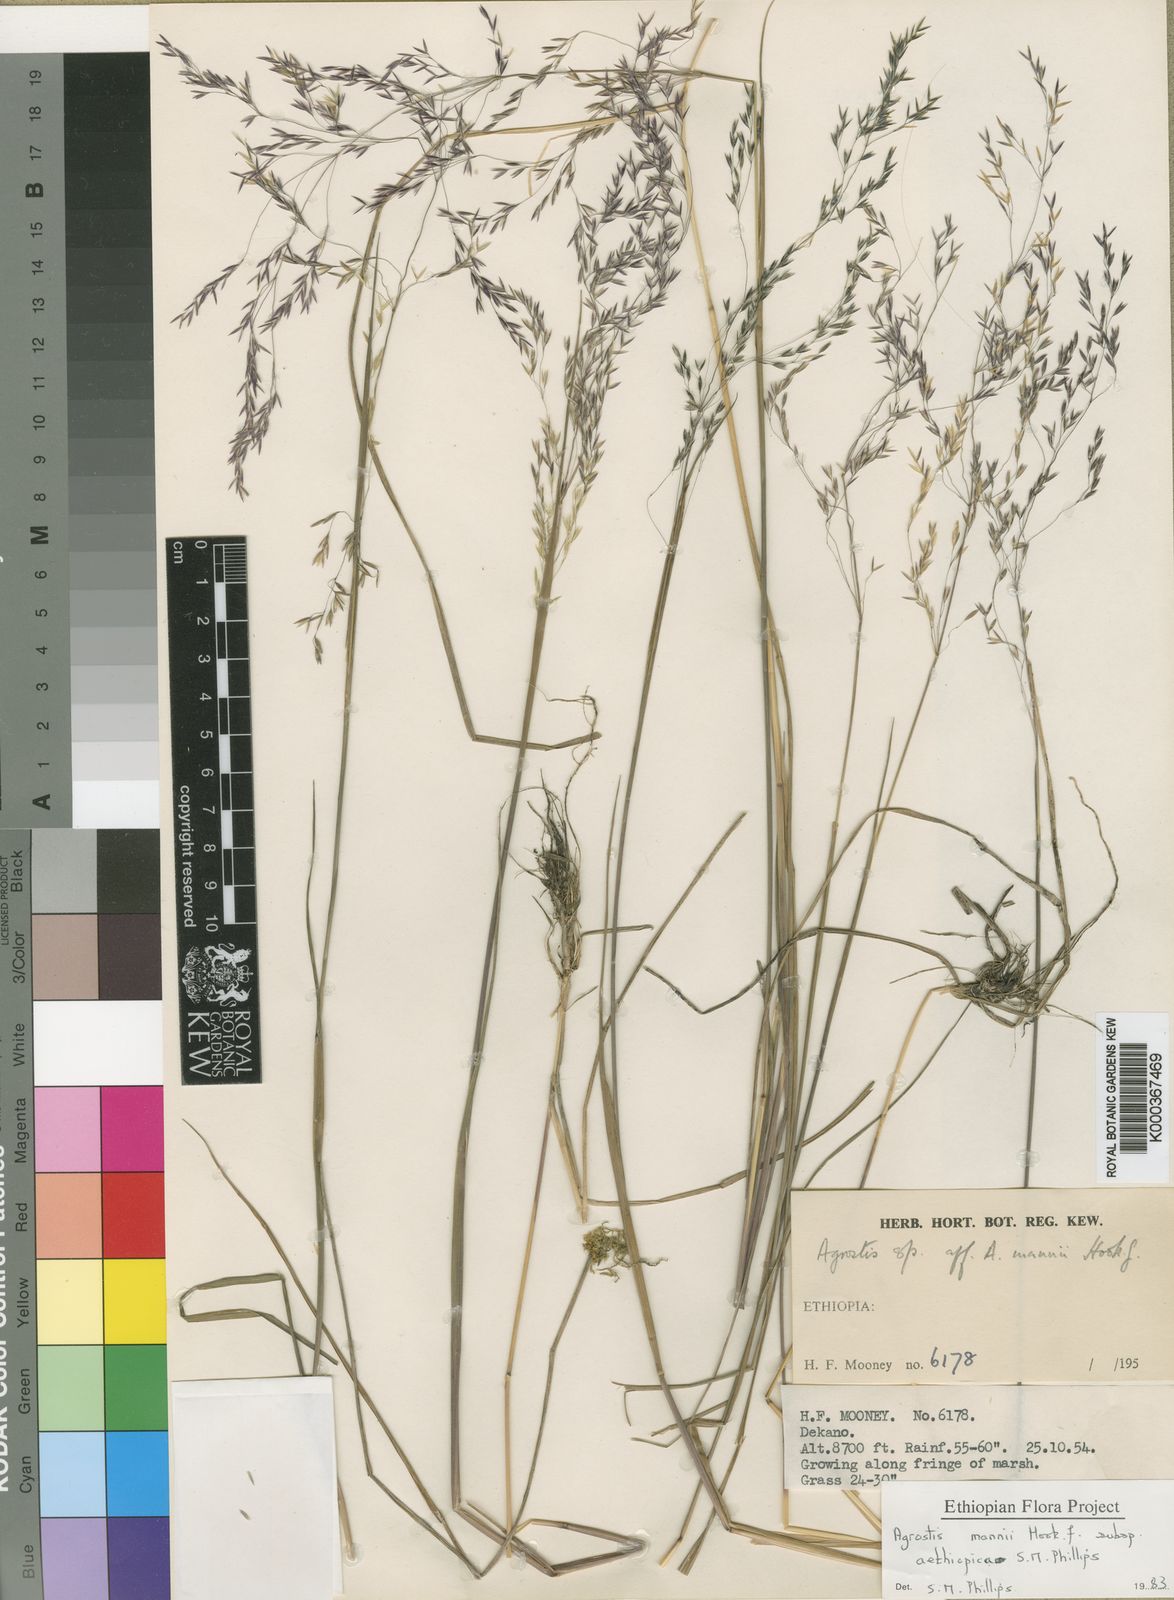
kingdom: Plantae
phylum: Tracheophyta
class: Liliopsida
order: Poales
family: Poaceae
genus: Agrostis
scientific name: Agrostis mannii
